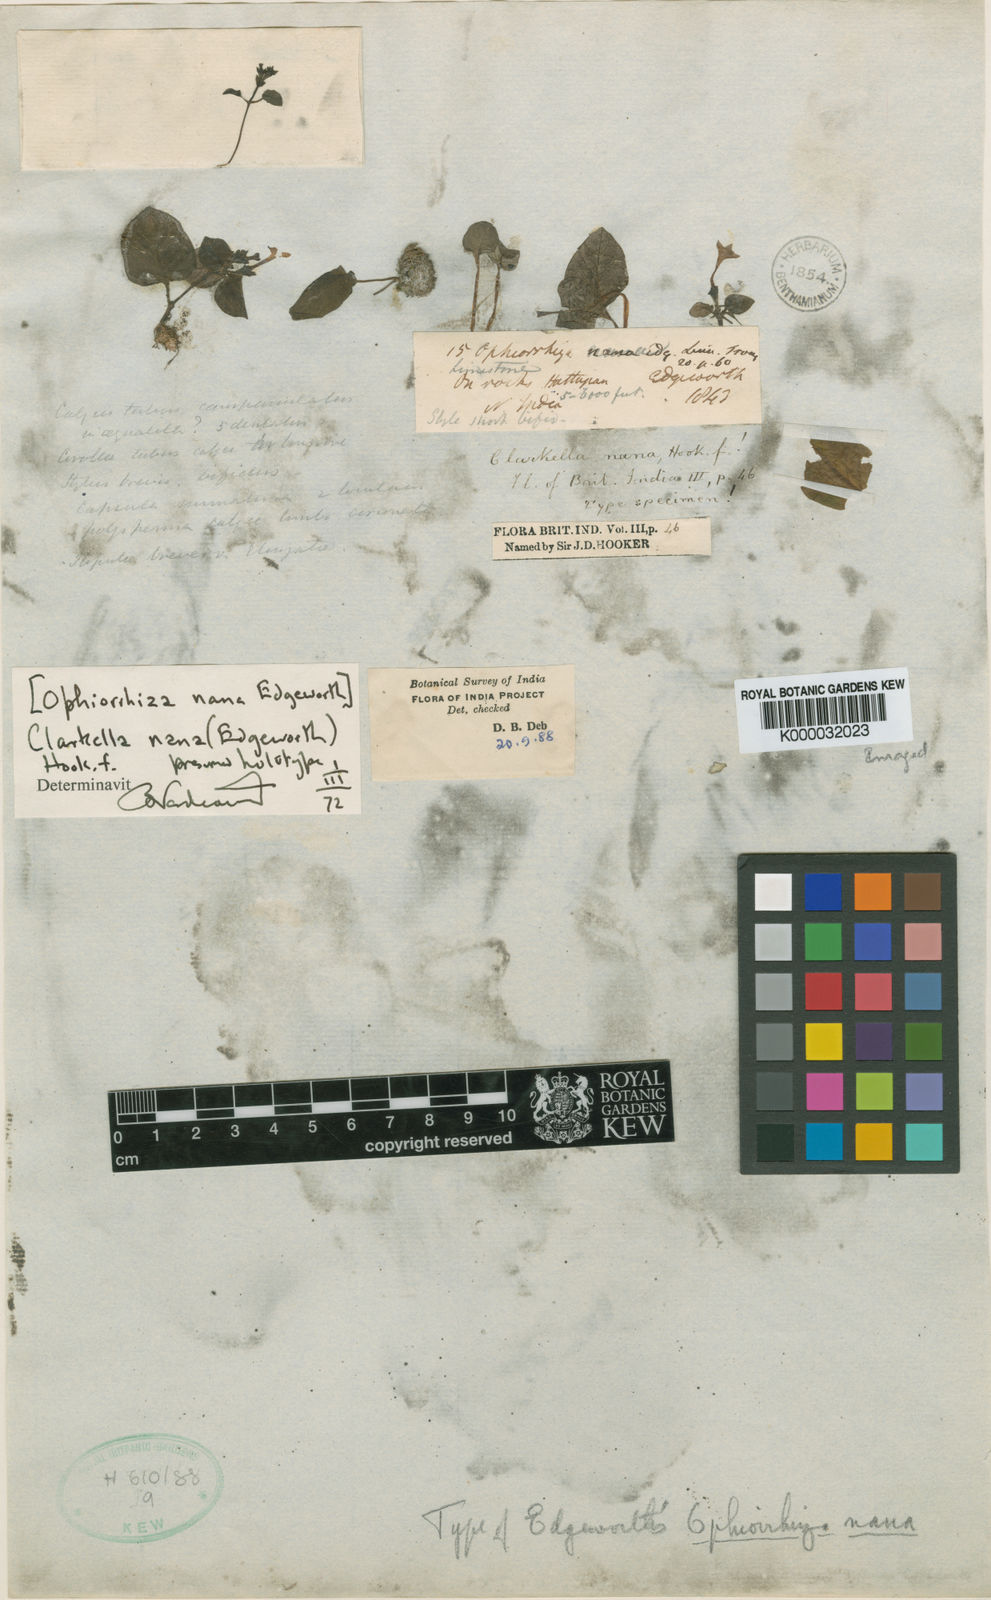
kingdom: Plantae
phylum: Tracheophyta
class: Magnoliopsida
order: Gentianales
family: Rubiaceae
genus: Clarkella
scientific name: Clarkella nana
